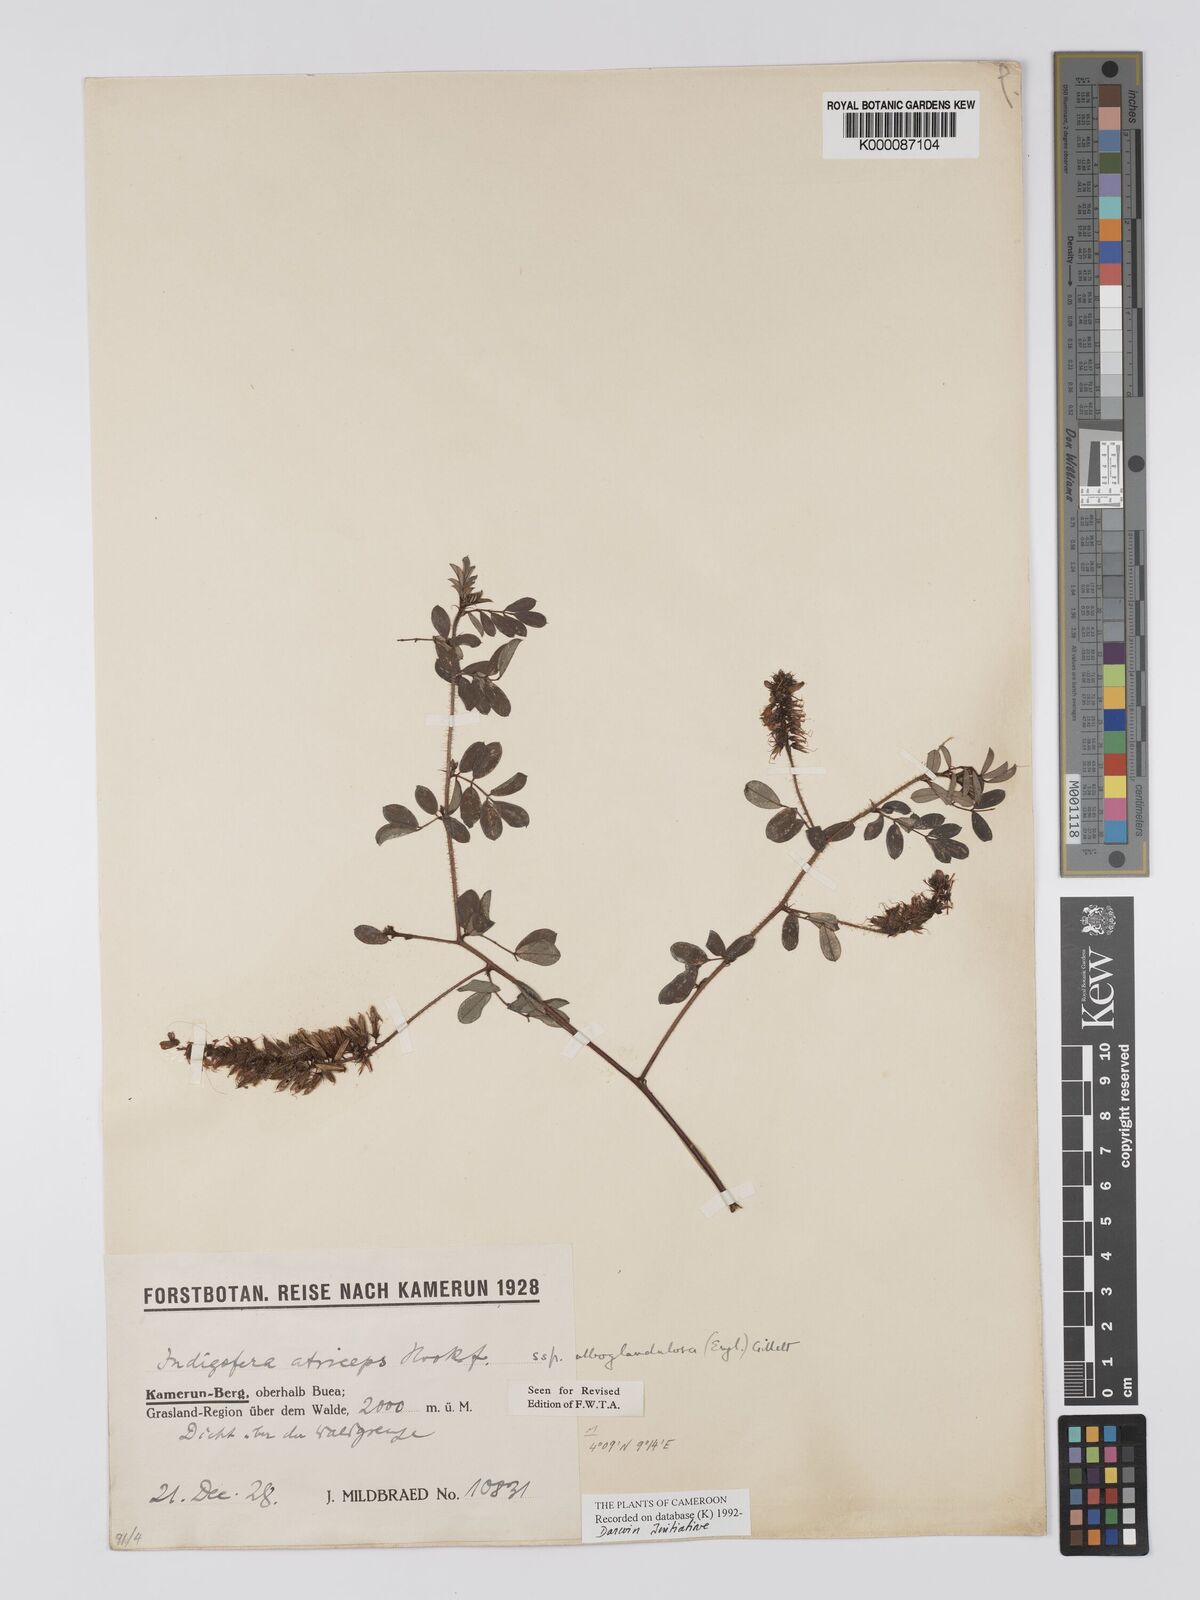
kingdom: Plantae
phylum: Tracheophyta
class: Magnoliopsida
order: Fabales
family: Fabaceae
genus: Indigofera
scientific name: Indigofera atriceps
